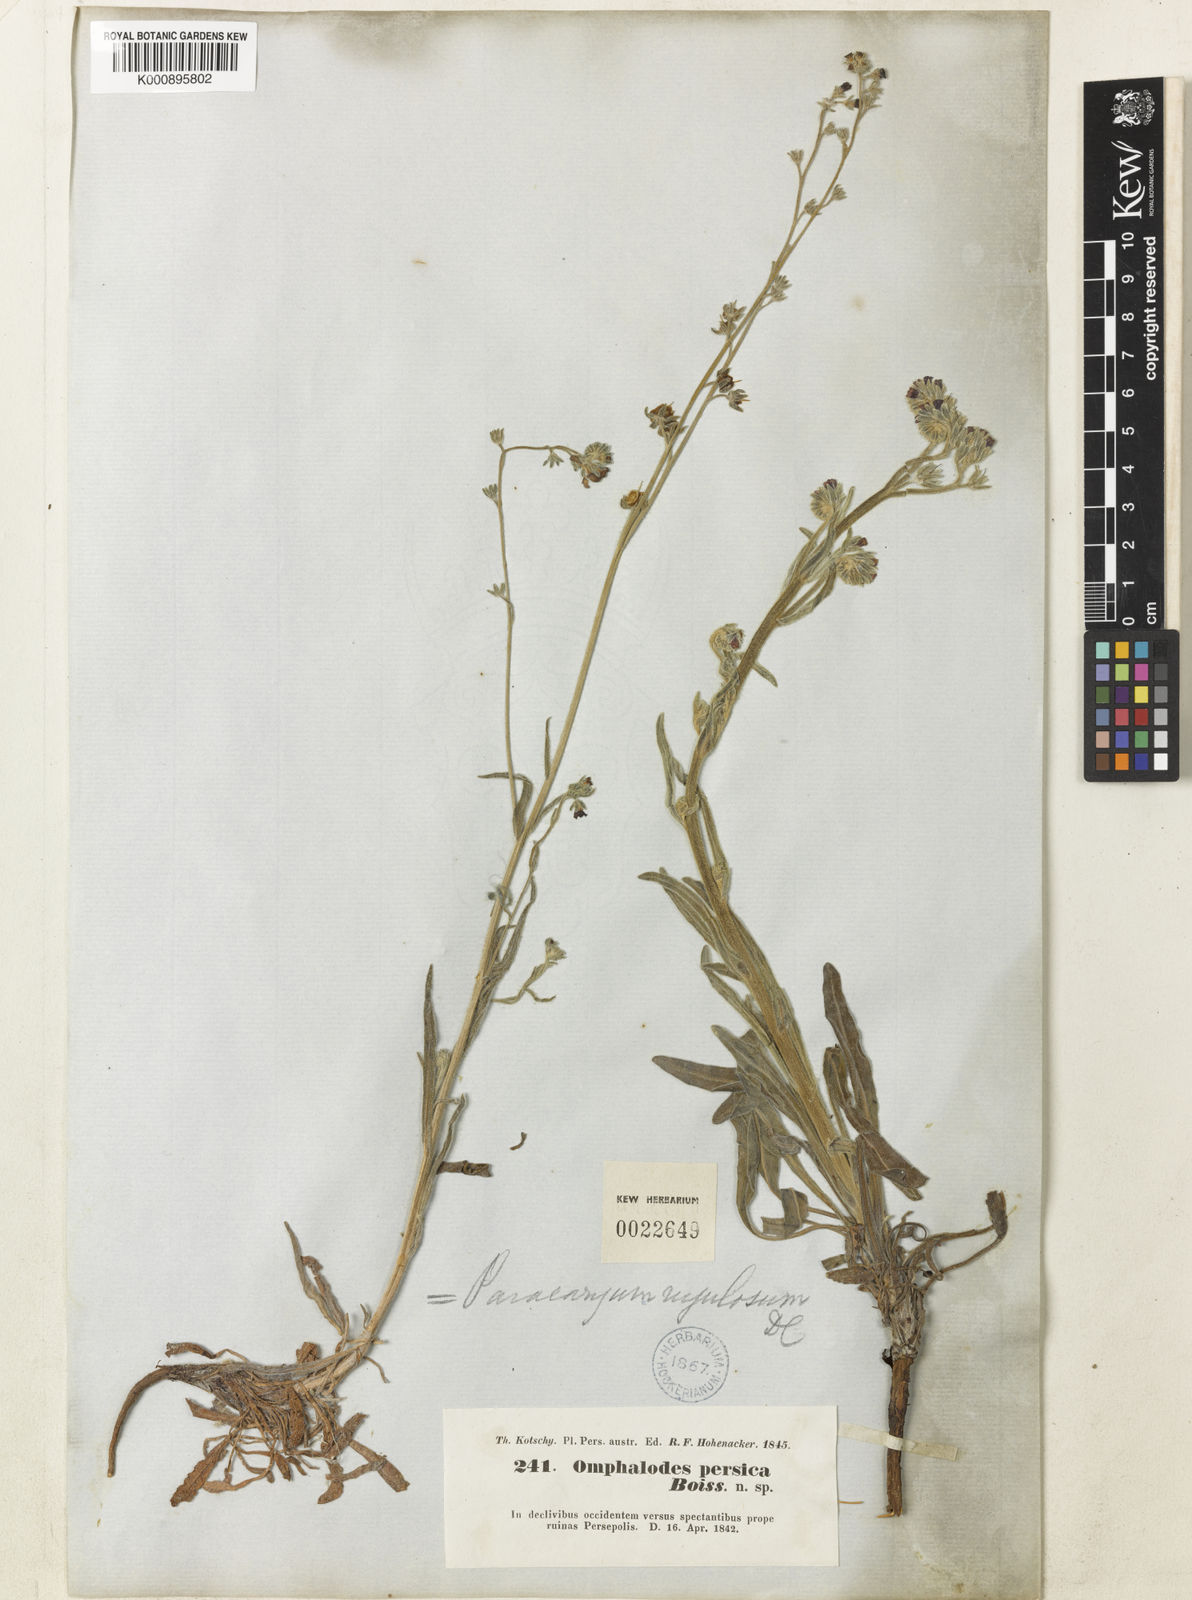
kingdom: Plantae
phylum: Tracheophyta
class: Magnoliopsida
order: Boraginales
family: Boraginaceae
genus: Paracaryum
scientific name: Paracaryum rugulosum
